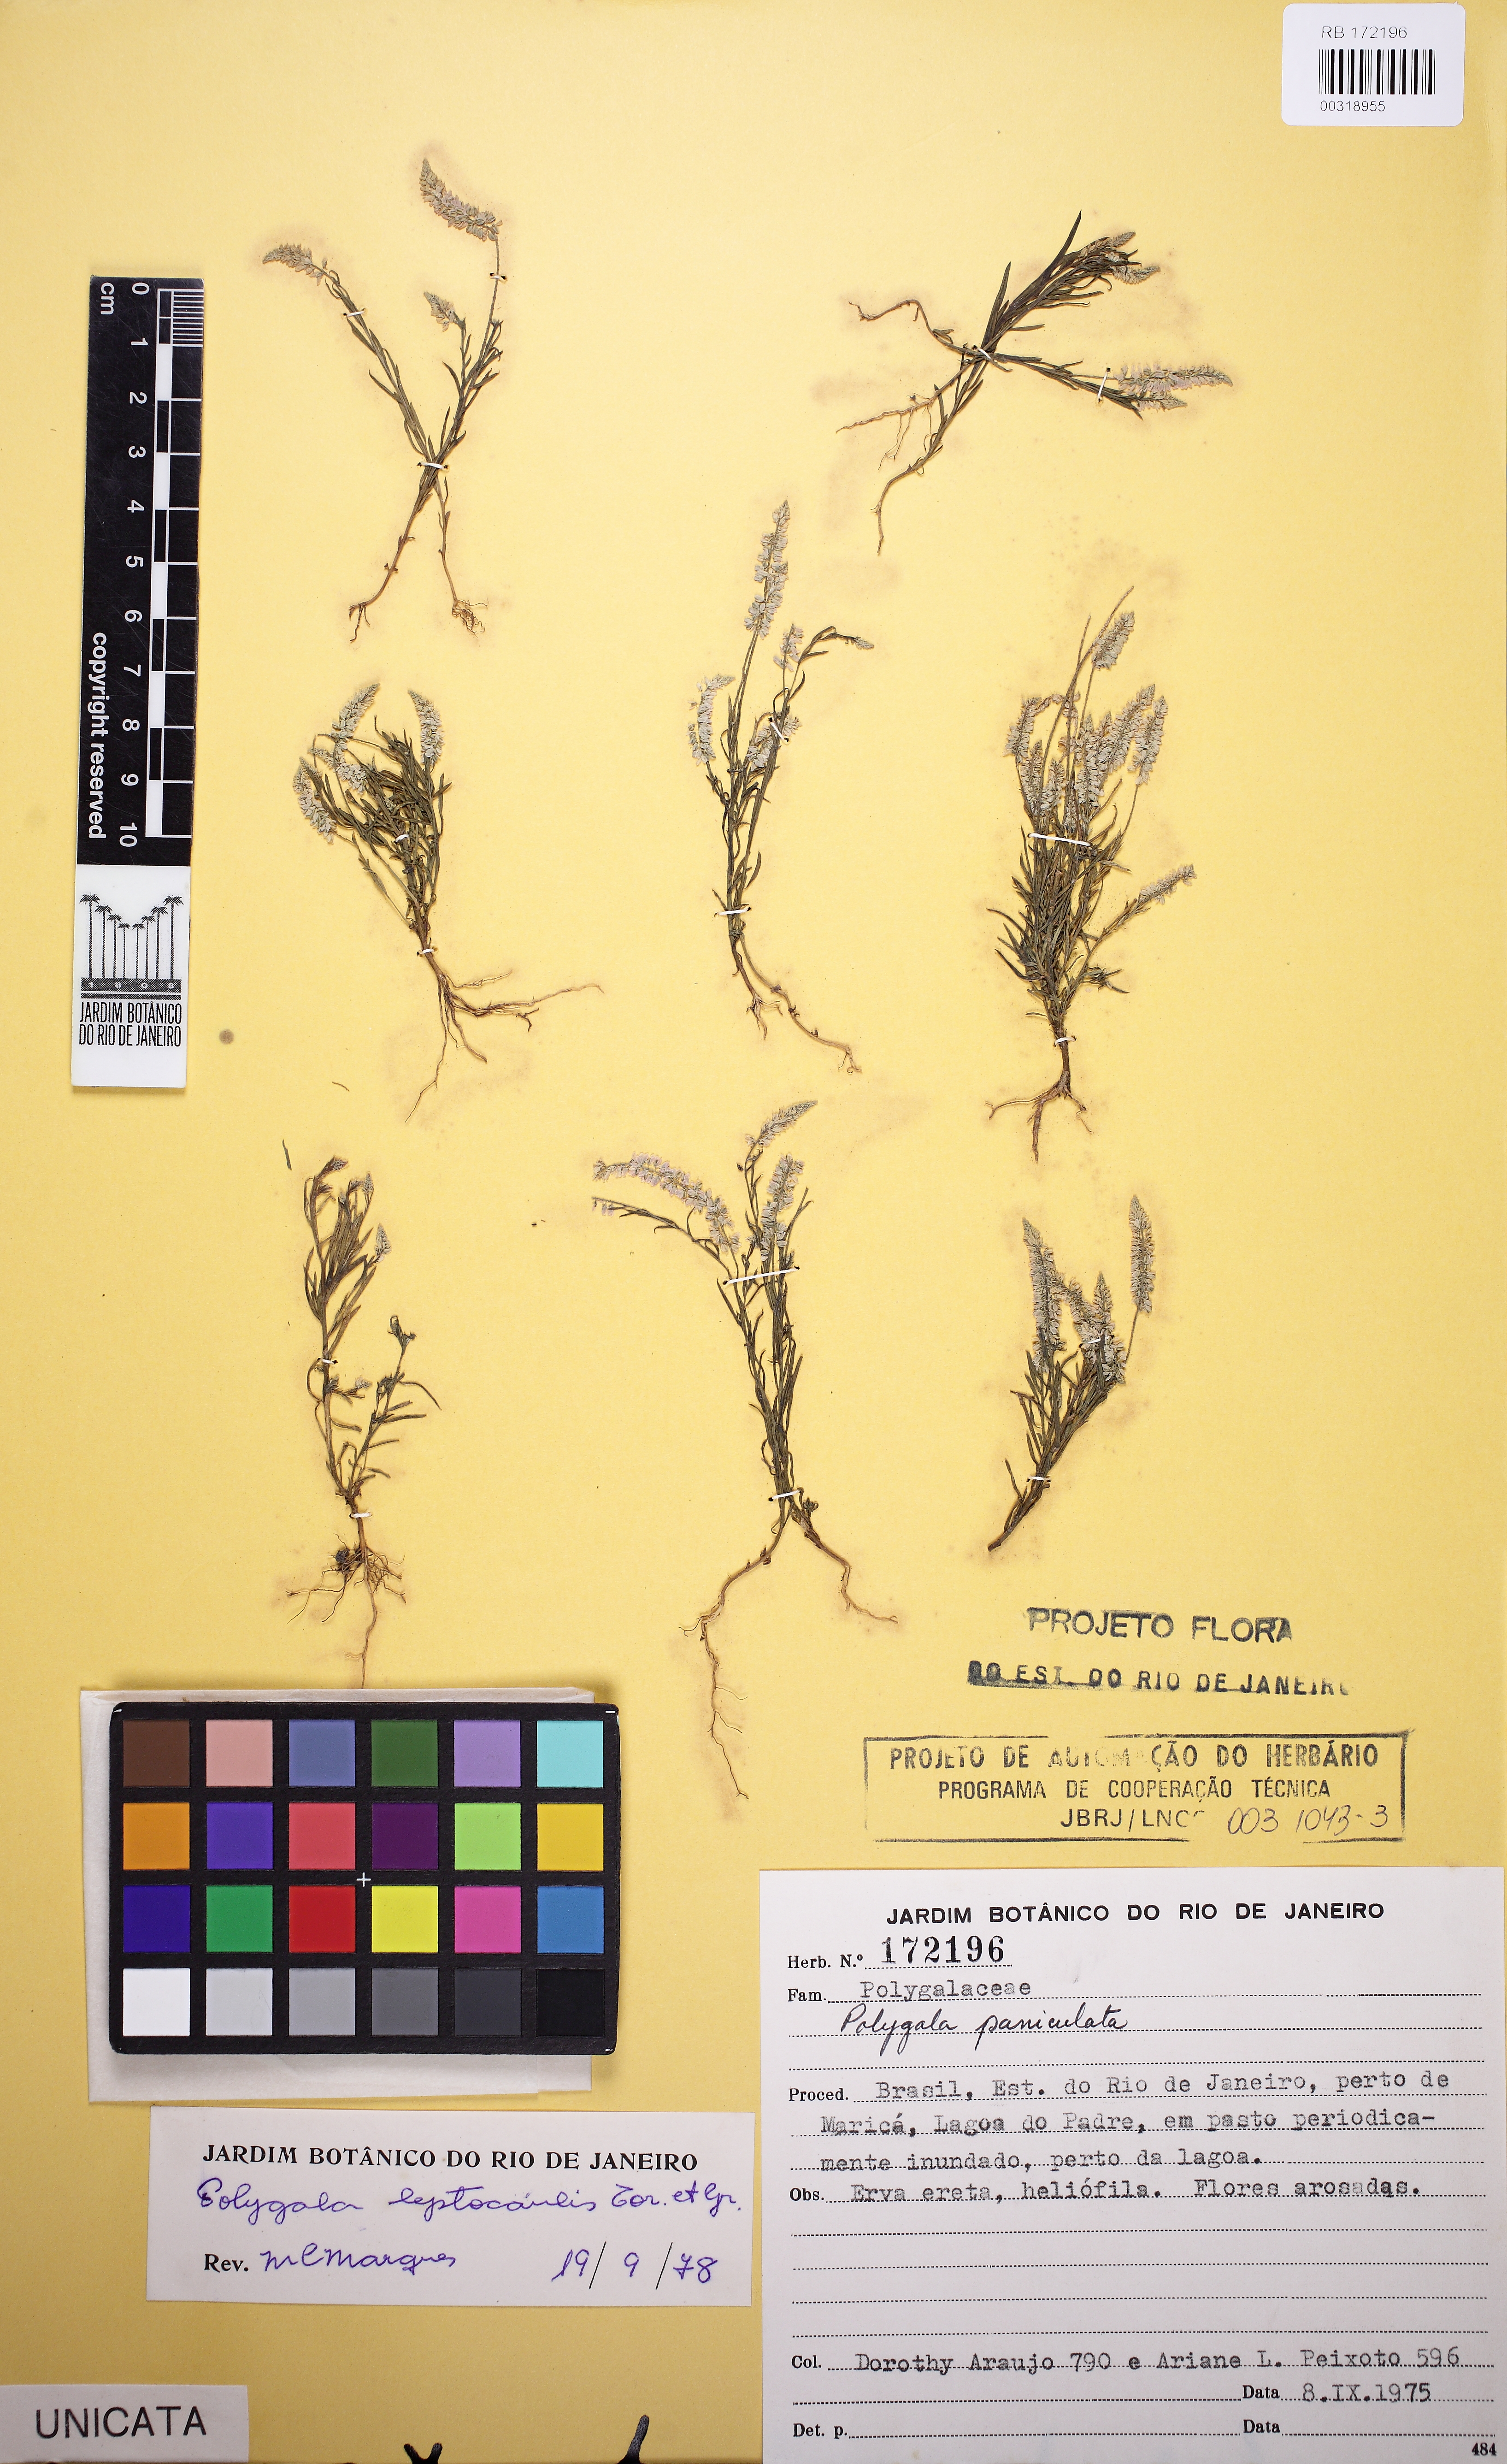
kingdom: Plantae
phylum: Tracheophyta
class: Magnoliopsida
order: Fabales
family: Polygalaceae
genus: Polygala
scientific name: Polygala tenella
